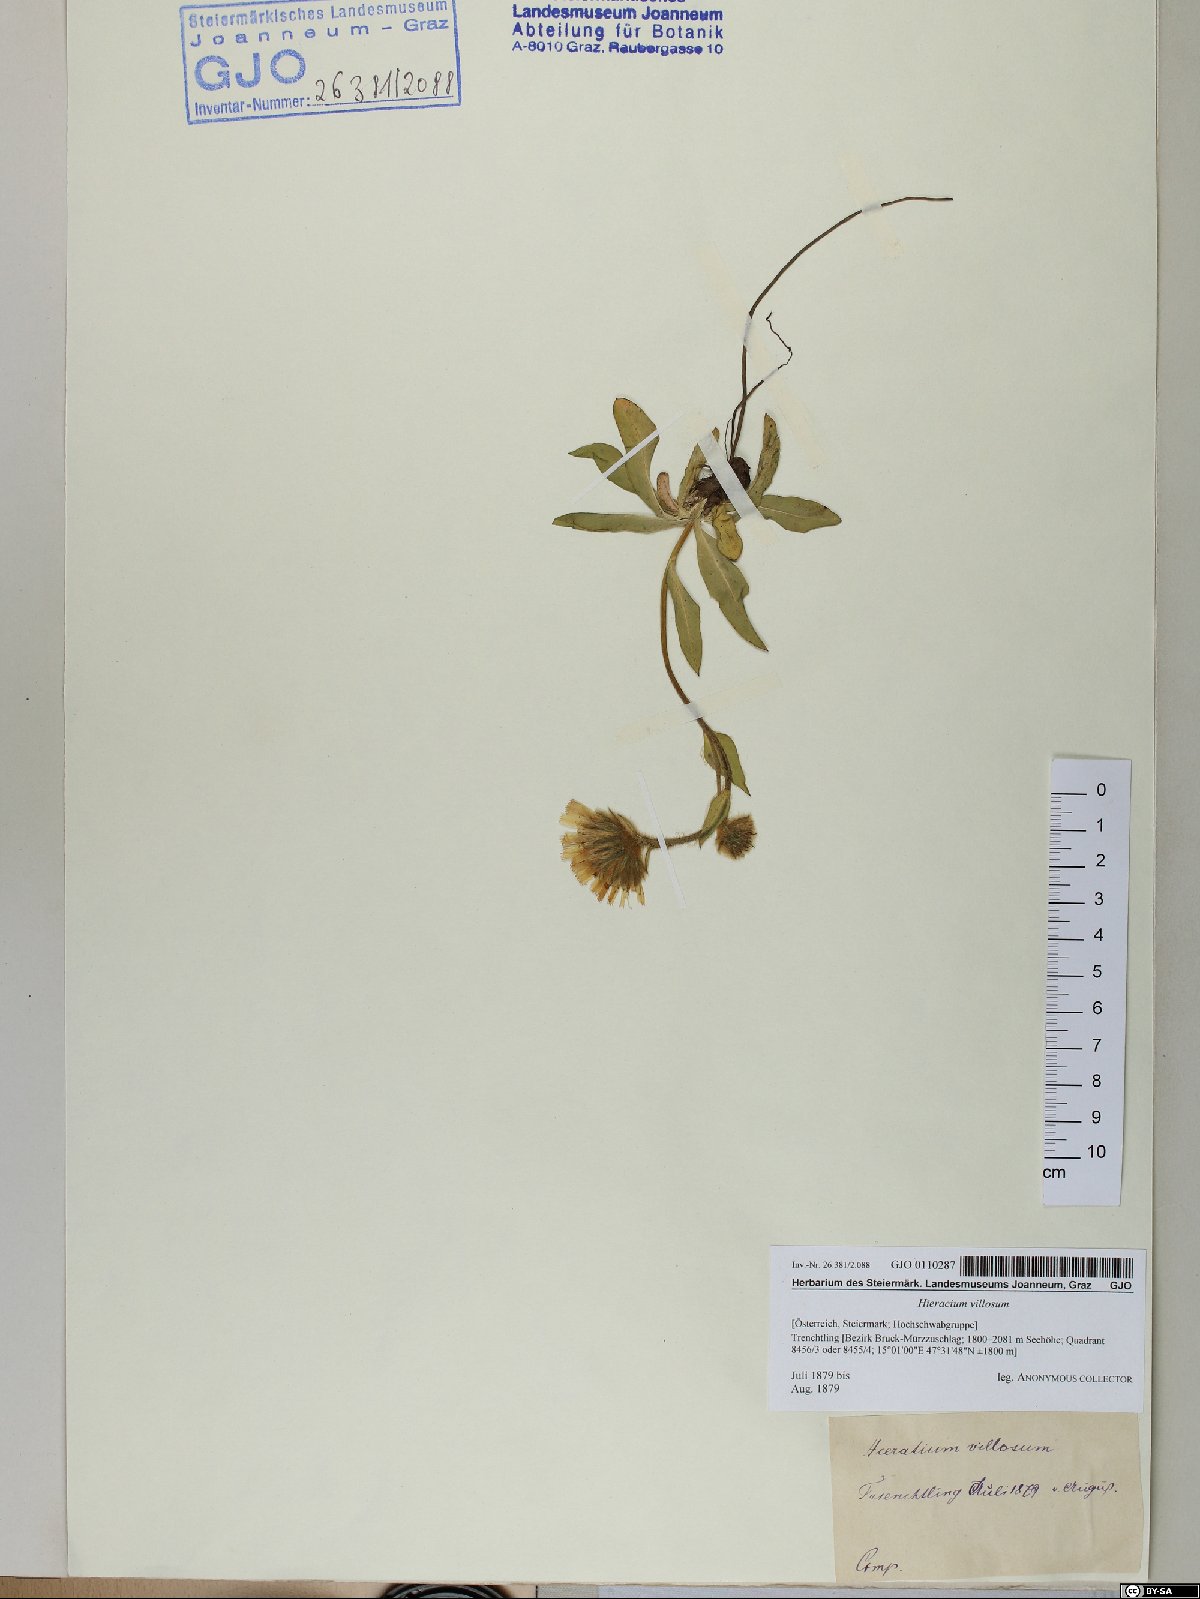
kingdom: Plantae
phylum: Tracheophyta
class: Magnoliopsida
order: Asterales
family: Asteraceae
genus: Hieracium
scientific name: Hieracium villosum
